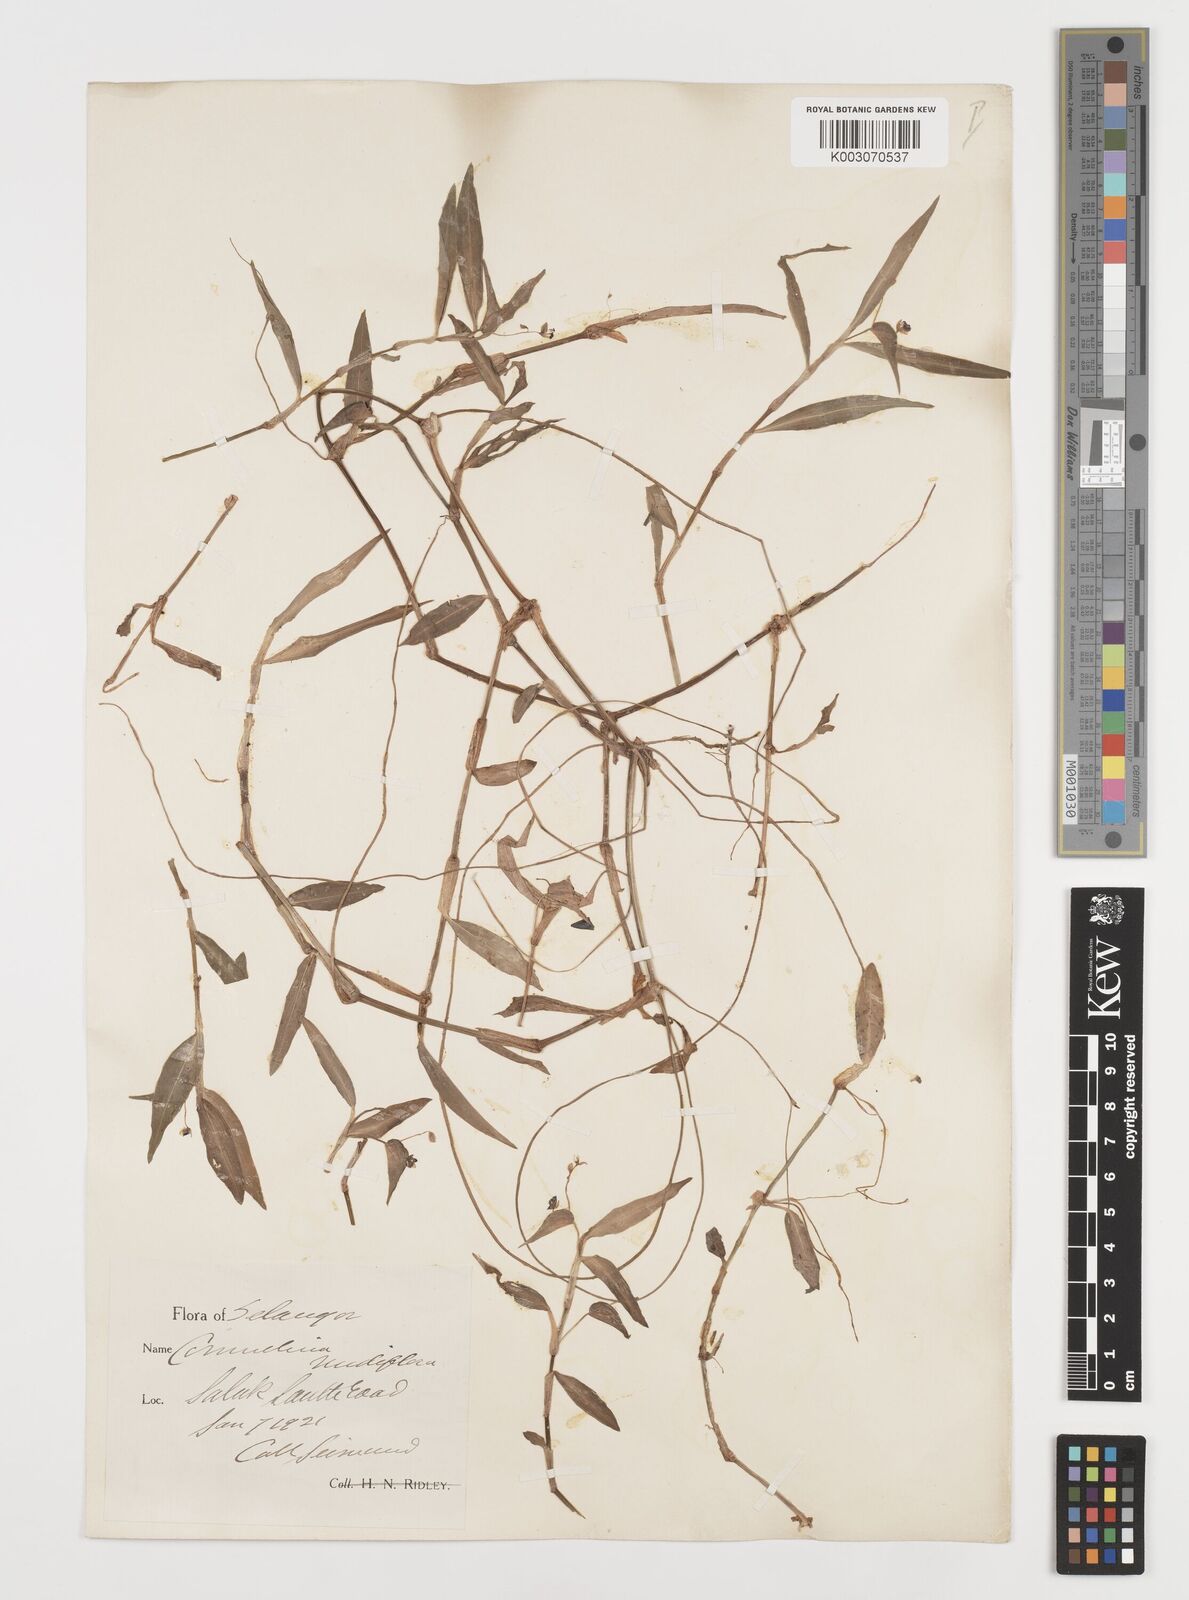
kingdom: Plantae
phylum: Tracheophyta
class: Liliopsida
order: Commelinales
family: Commelinaceae
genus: Commelina
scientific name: Commelina clavata
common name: Willow leaved dayflower
